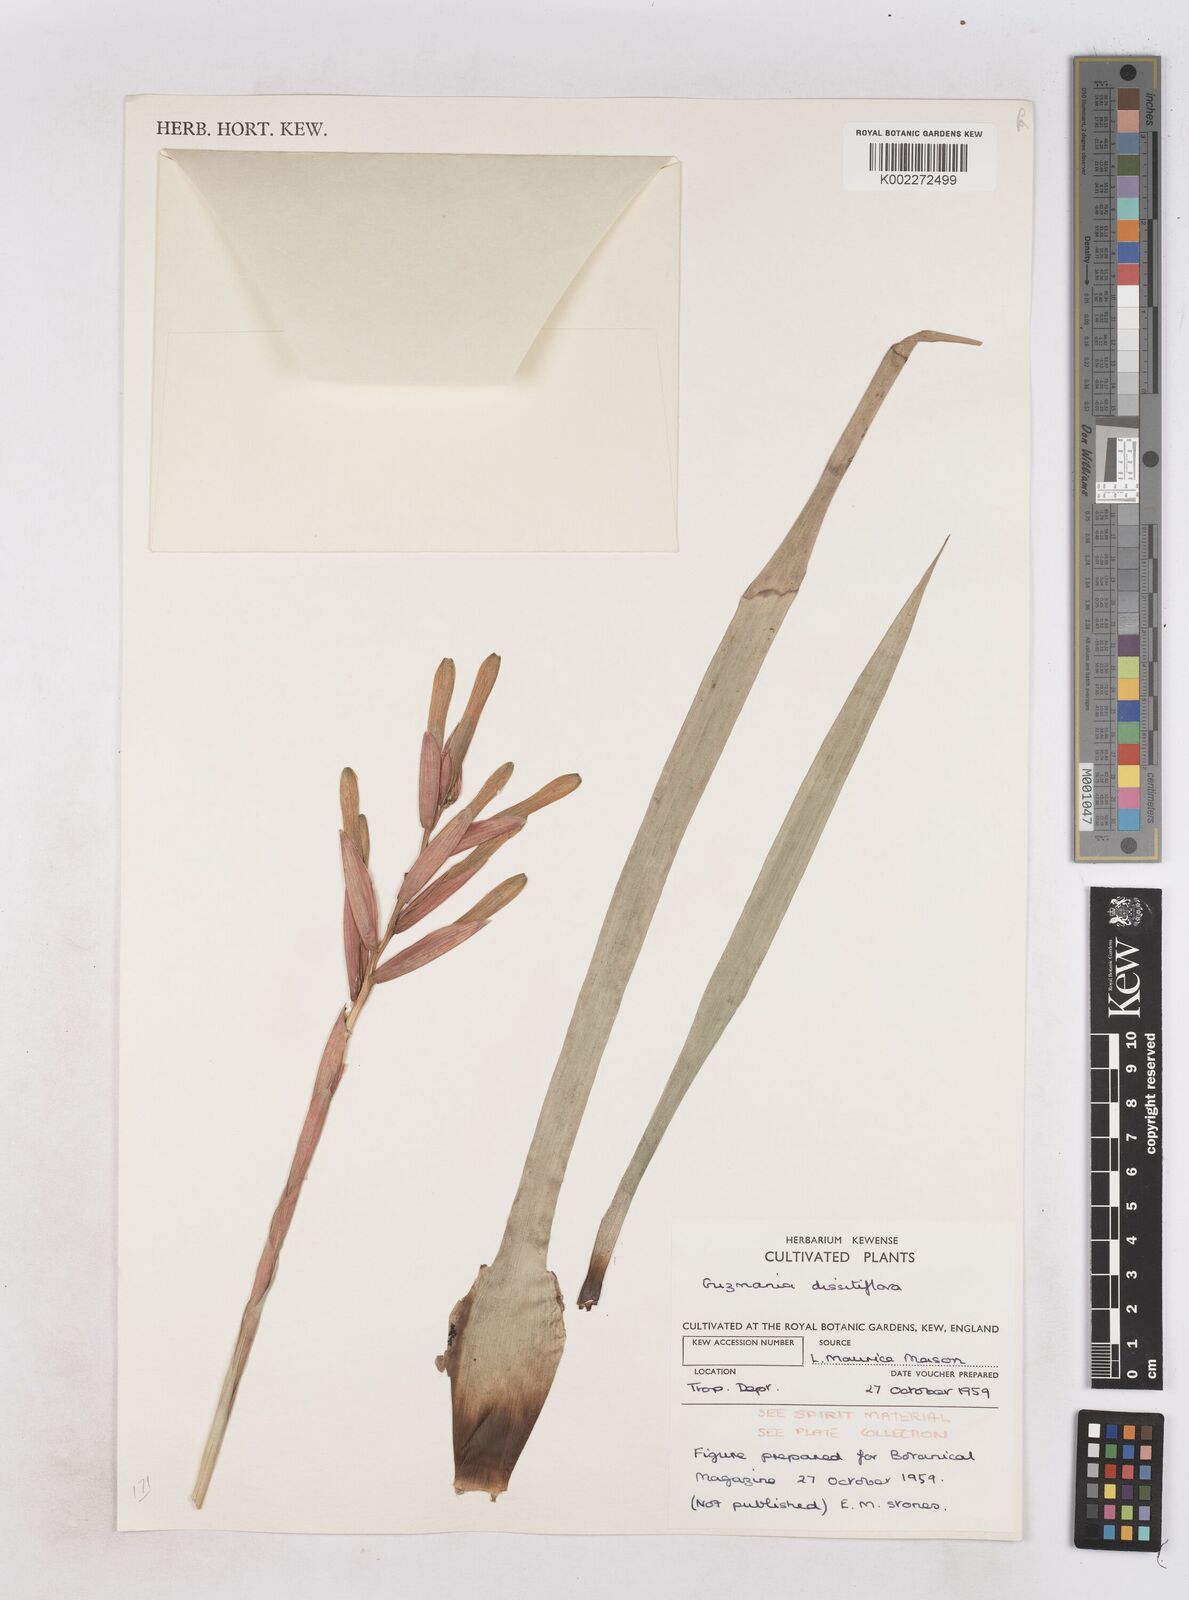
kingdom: Plantae
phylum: Tracheophyta
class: Liliopsida
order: Poales
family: Bromeliaceae
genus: Guzmania
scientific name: Guzmania dissitiflora
